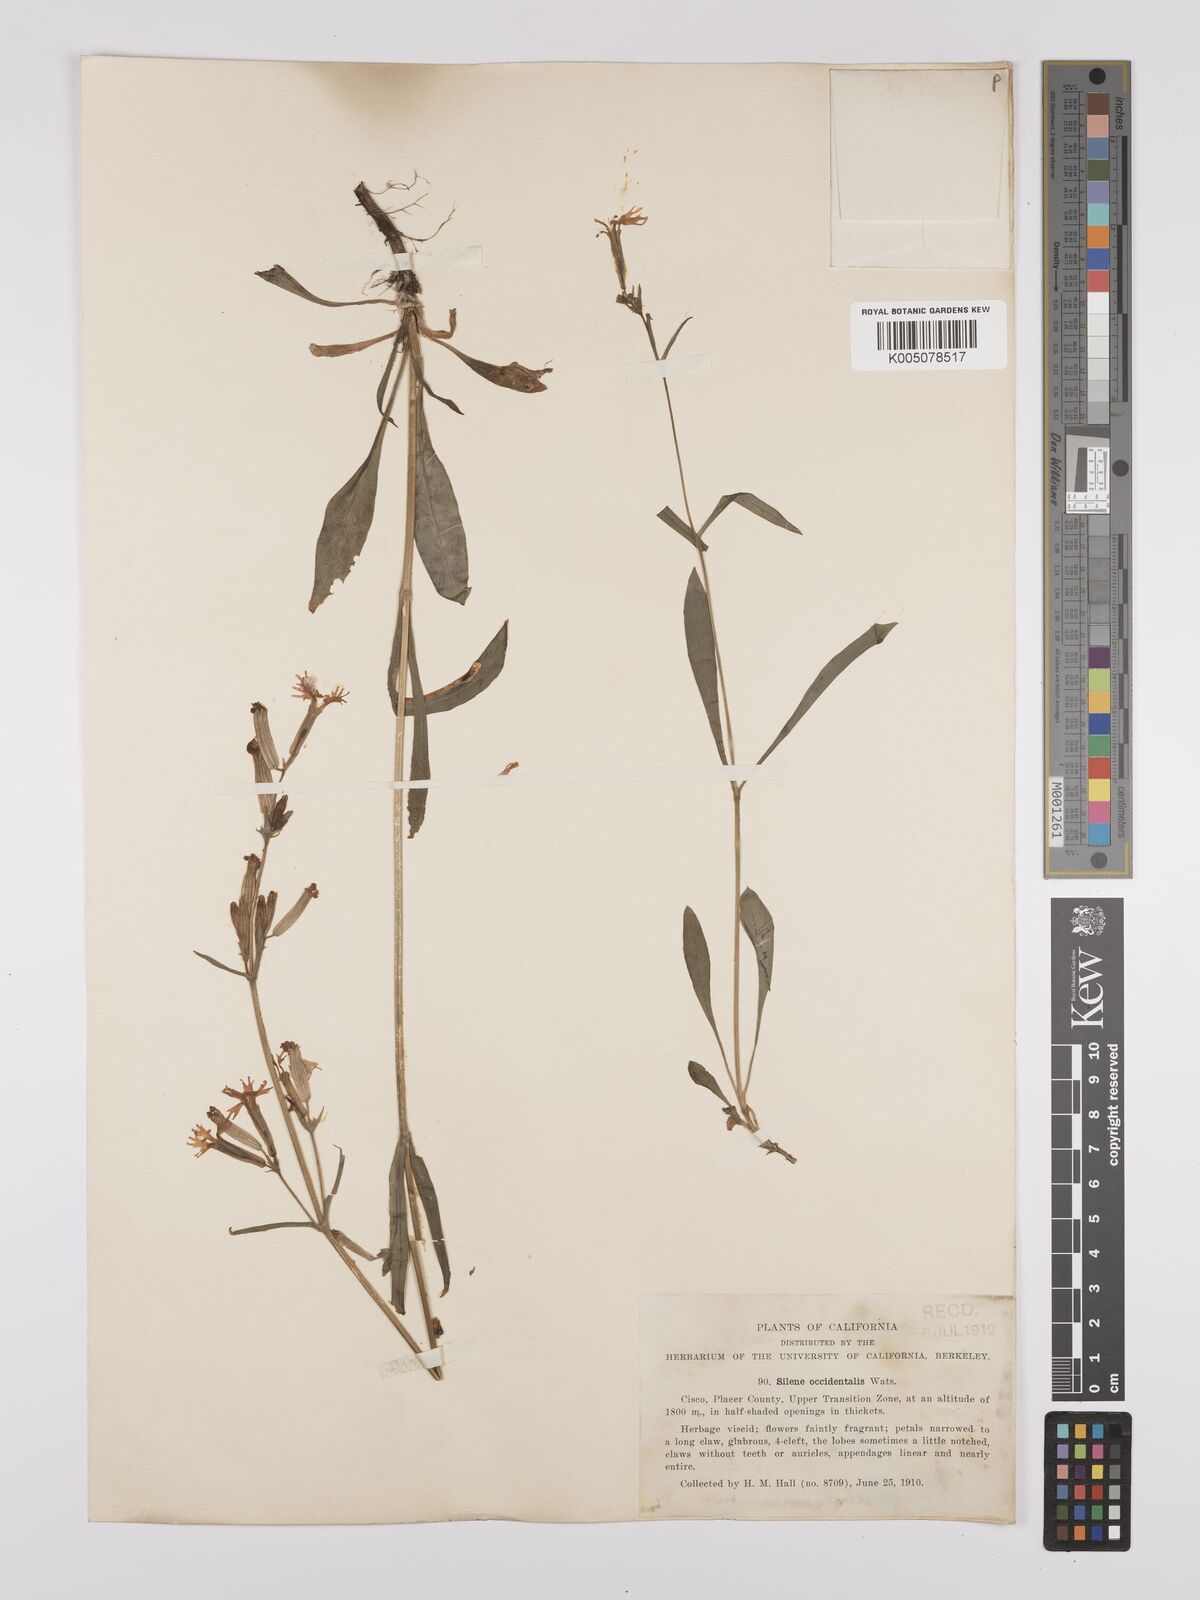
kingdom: Plantae
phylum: Tracheophyta
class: Magnoliopsida
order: Caryophyllales
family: Caryophyllaceae
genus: Silene
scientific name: Silene occidentalis
